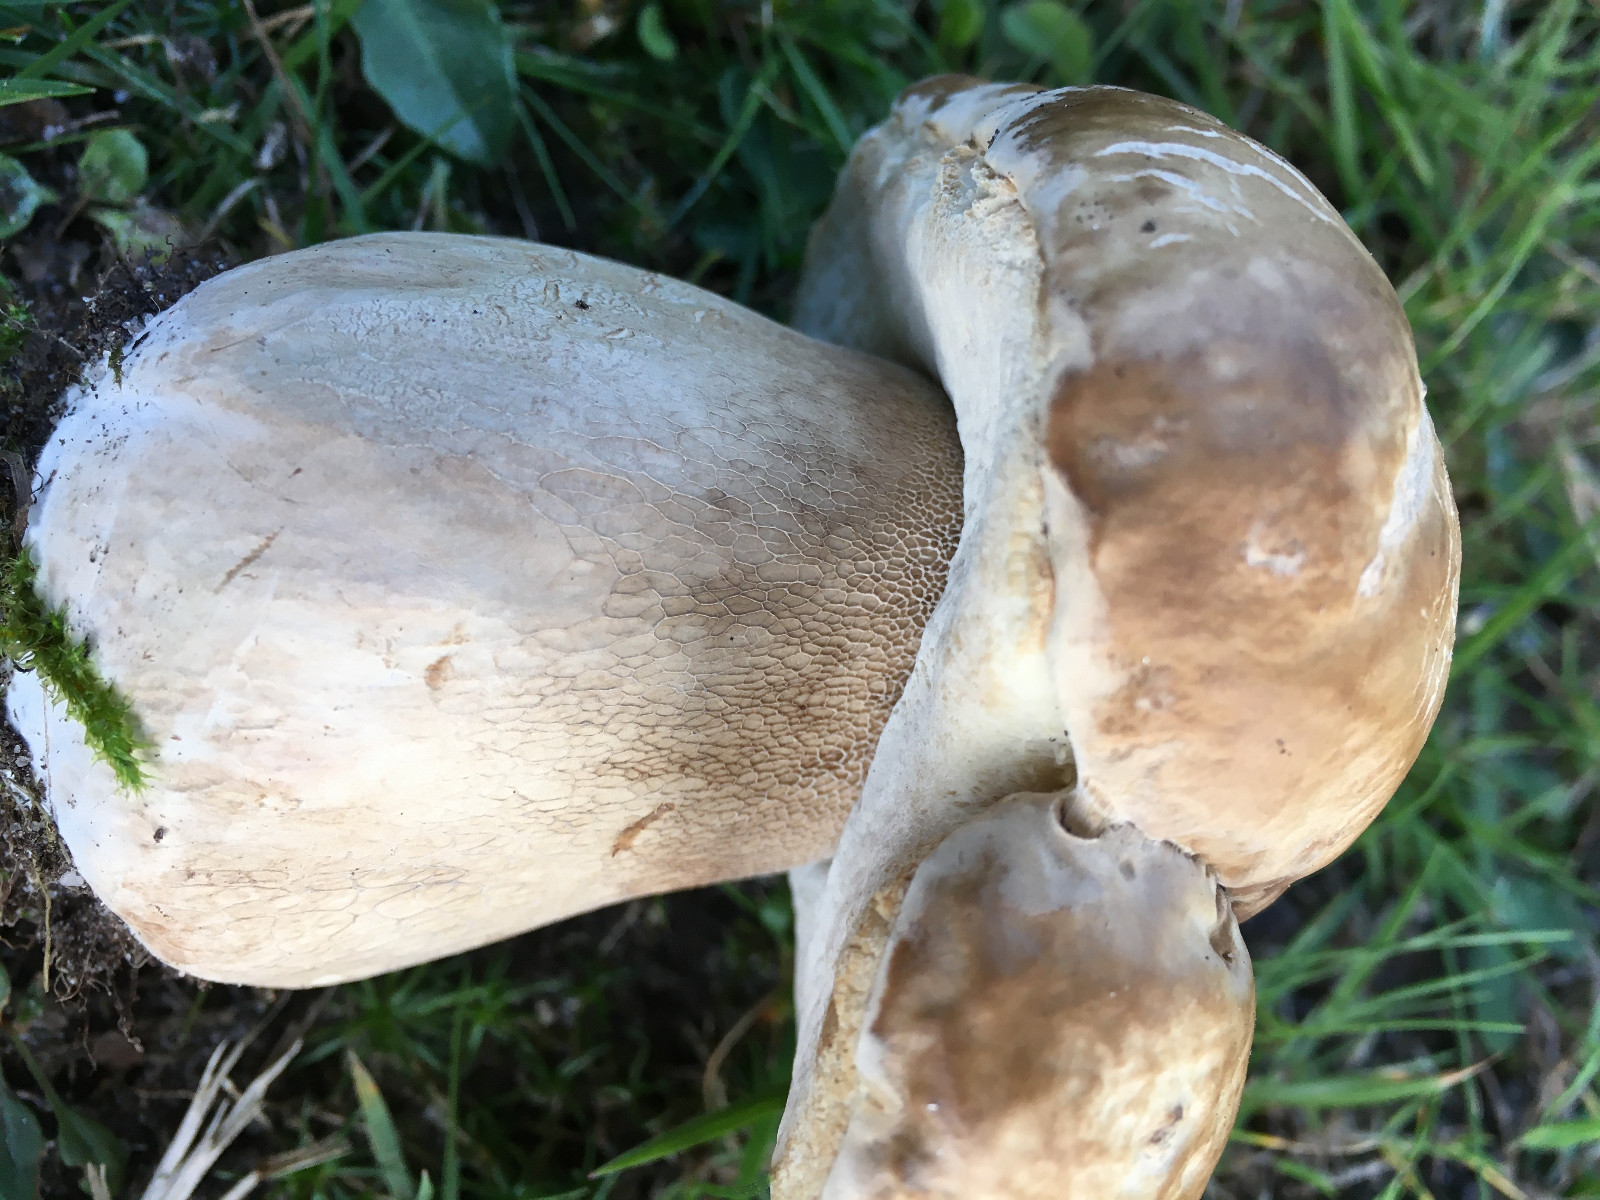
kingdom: Fungi
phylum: Basidiomycota
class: Agaricomycetes
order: Boletales
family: Boletaceae
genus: Boletus
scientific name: Boletus reticulatus
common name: sommer-rørhat
